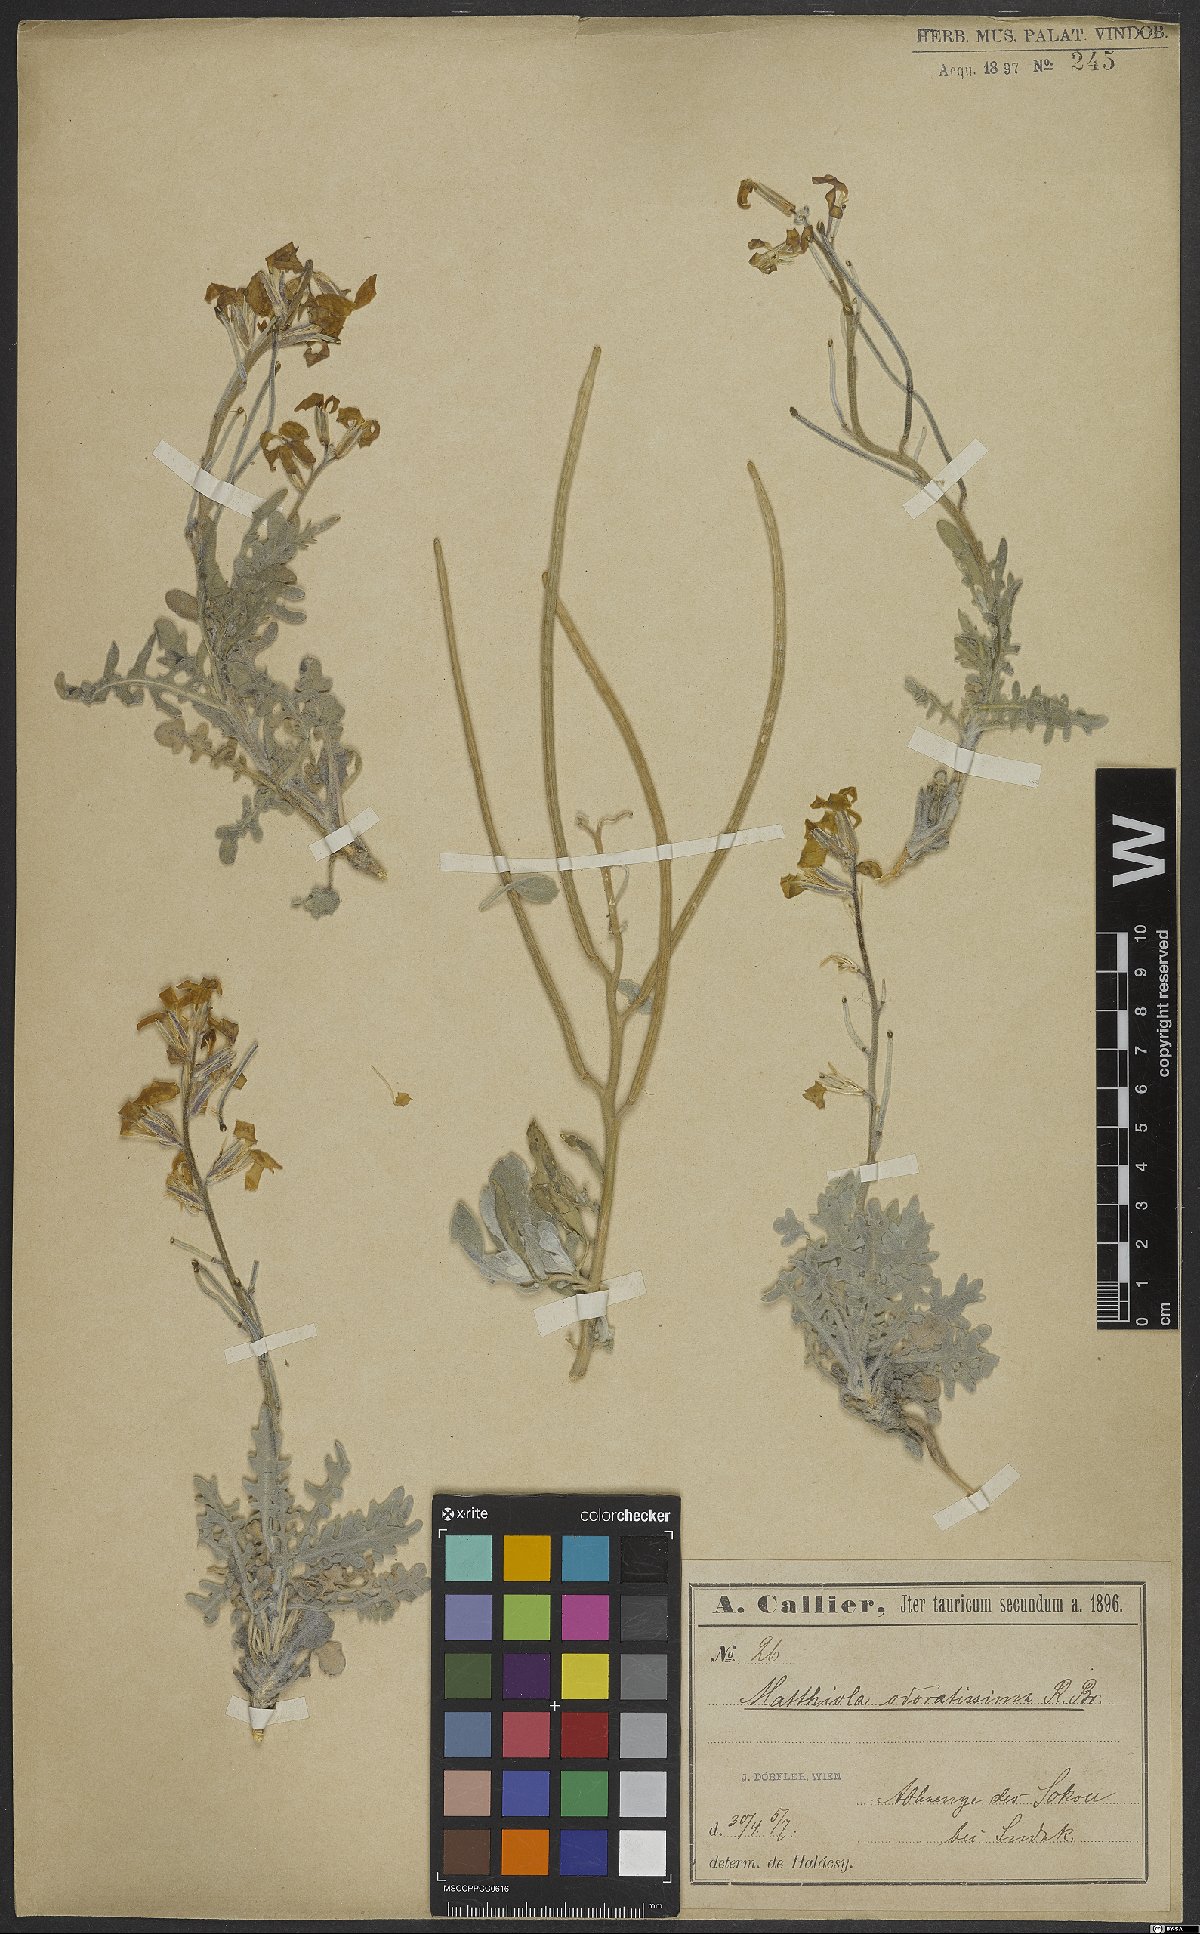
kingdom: Plantae
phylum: Tracheophyta
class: Magnoliopsida
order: Brassicales
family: Brassicaceae
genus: Matthiola
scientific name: Matthiola odoratissima
